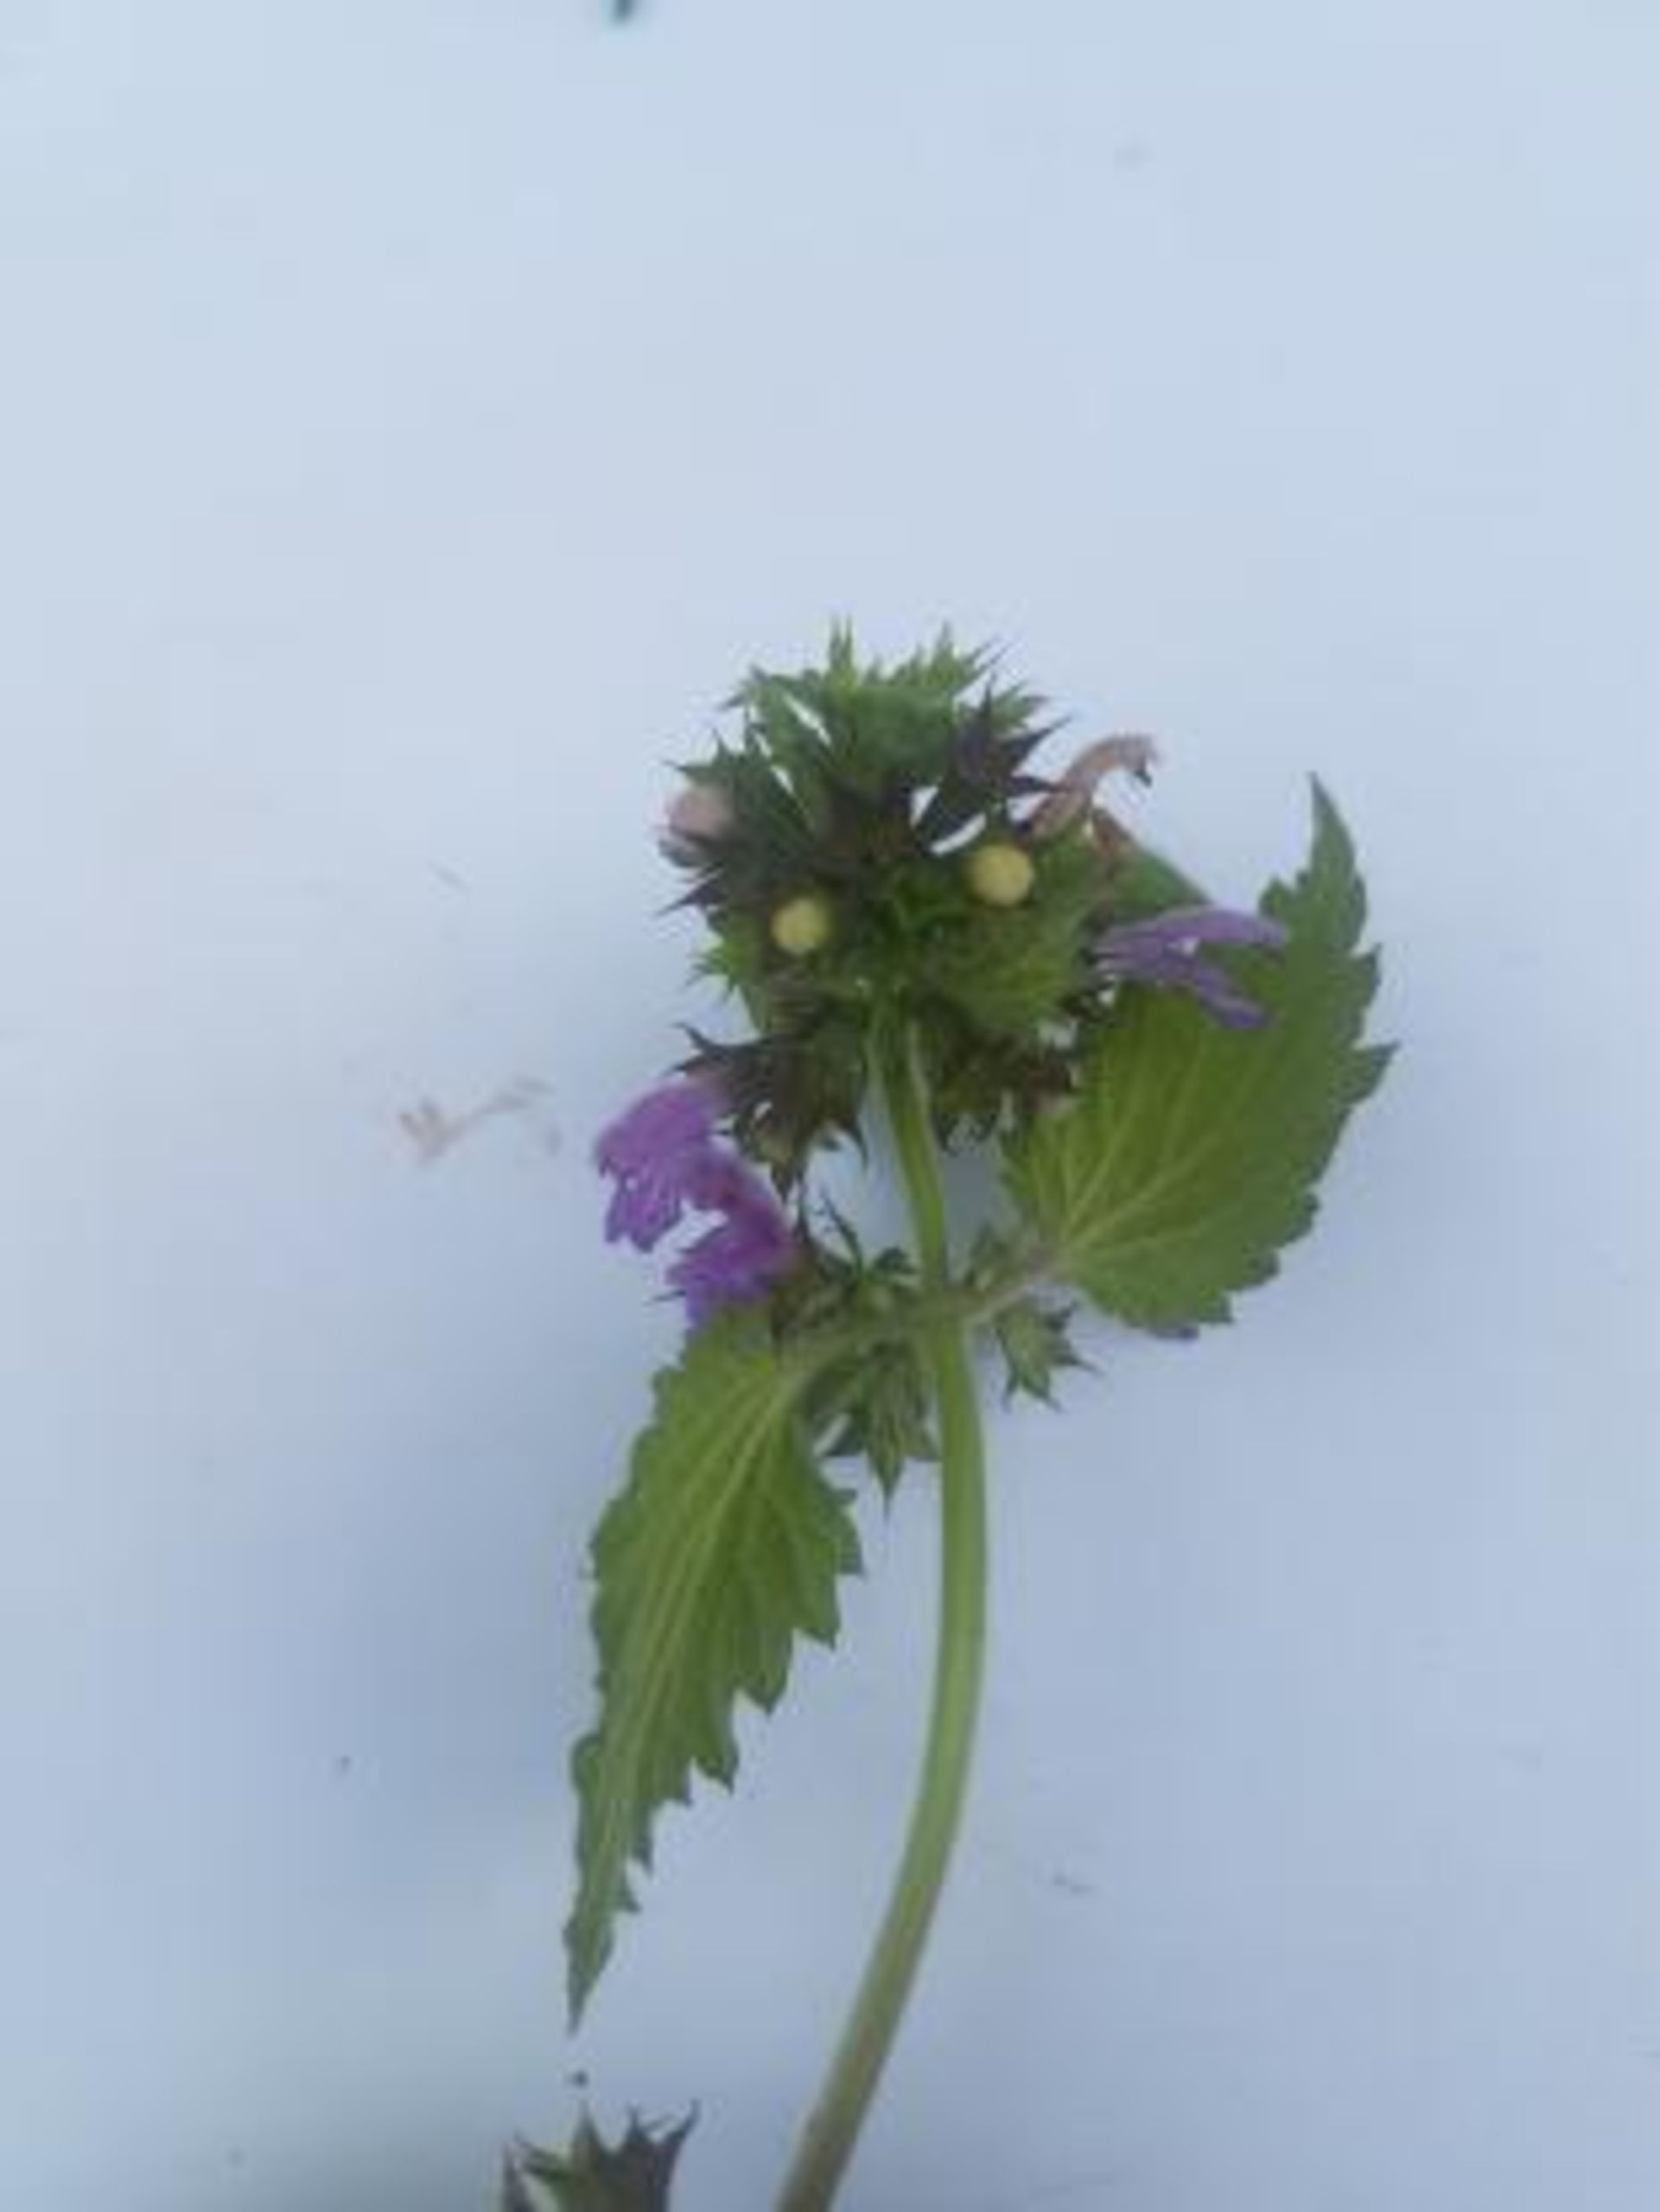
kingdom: Plantae
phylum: Tracheophyta
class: Magnoliopsida
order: Lamiales
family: Lamiaceae
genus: Ballota
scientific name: Ballota nigra
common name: Tandbæger
